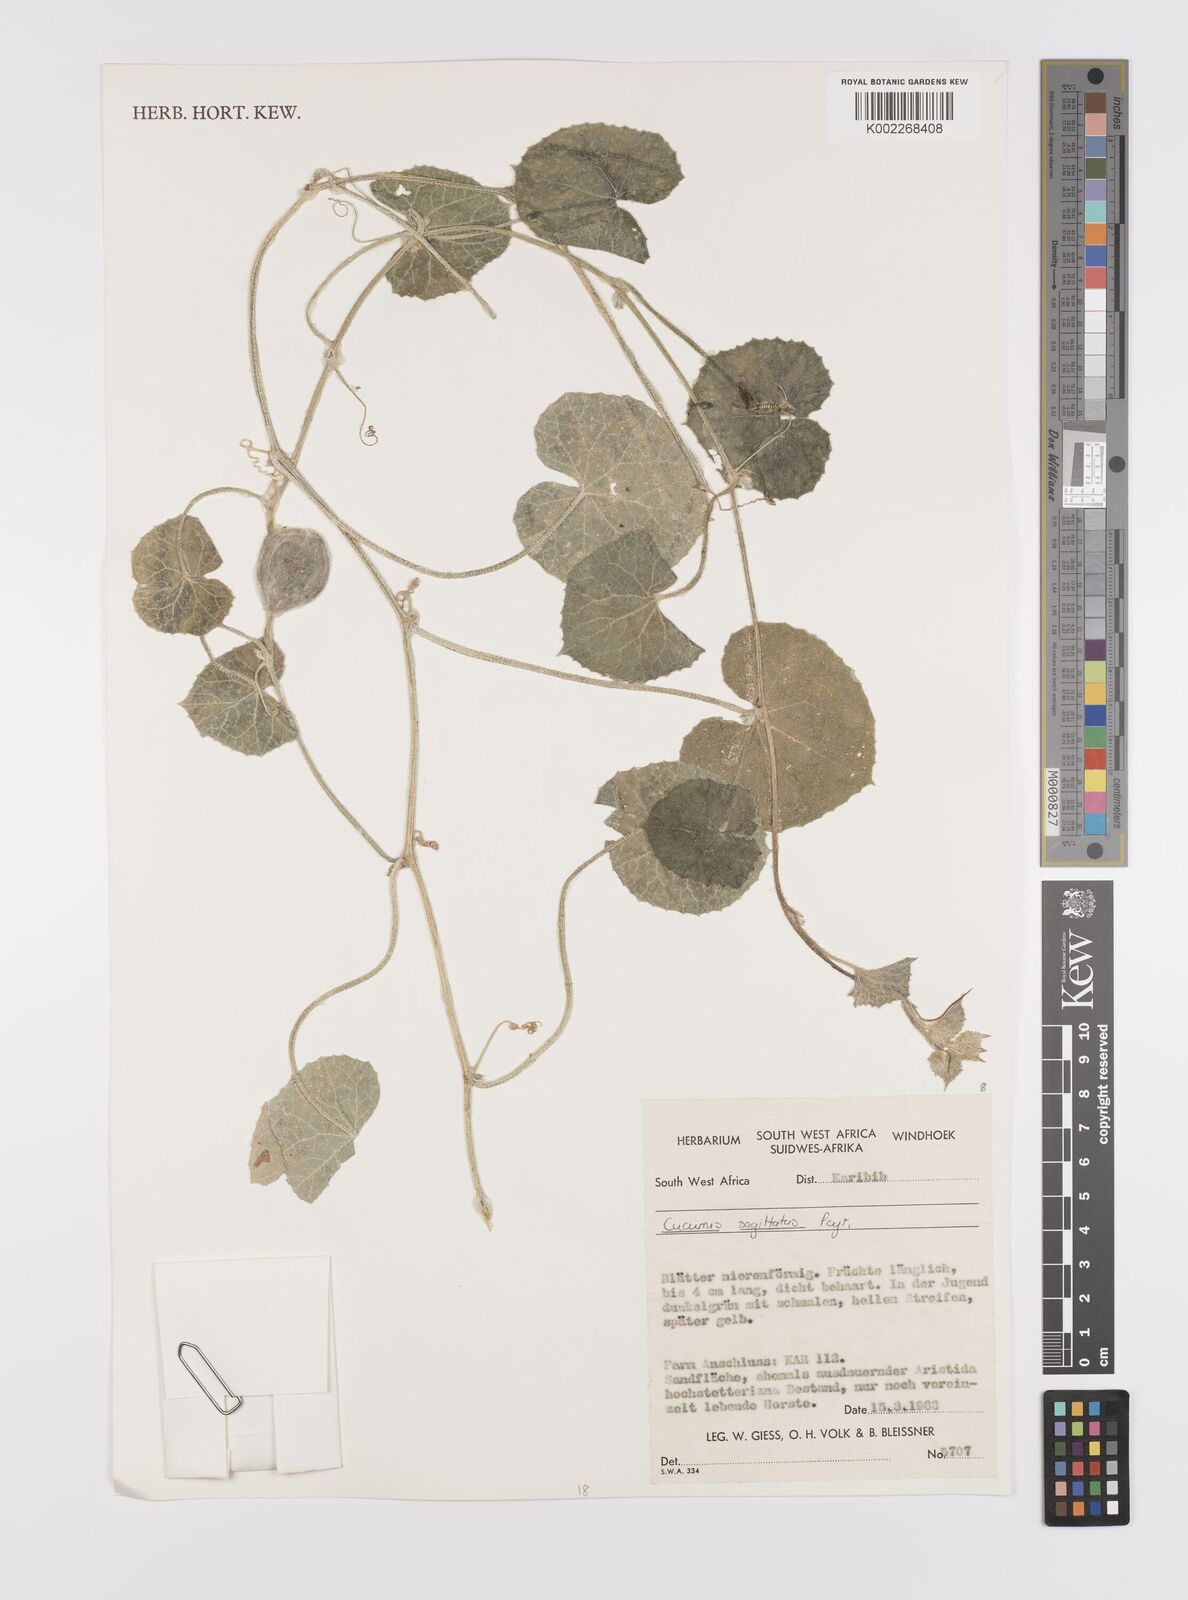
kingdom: Plantae
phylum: Tracheophyta
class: Magnoliopsida
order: Cucurbitales
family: Cucurbitaceae
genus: Cucumis
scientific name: Cucumis sagittatus
